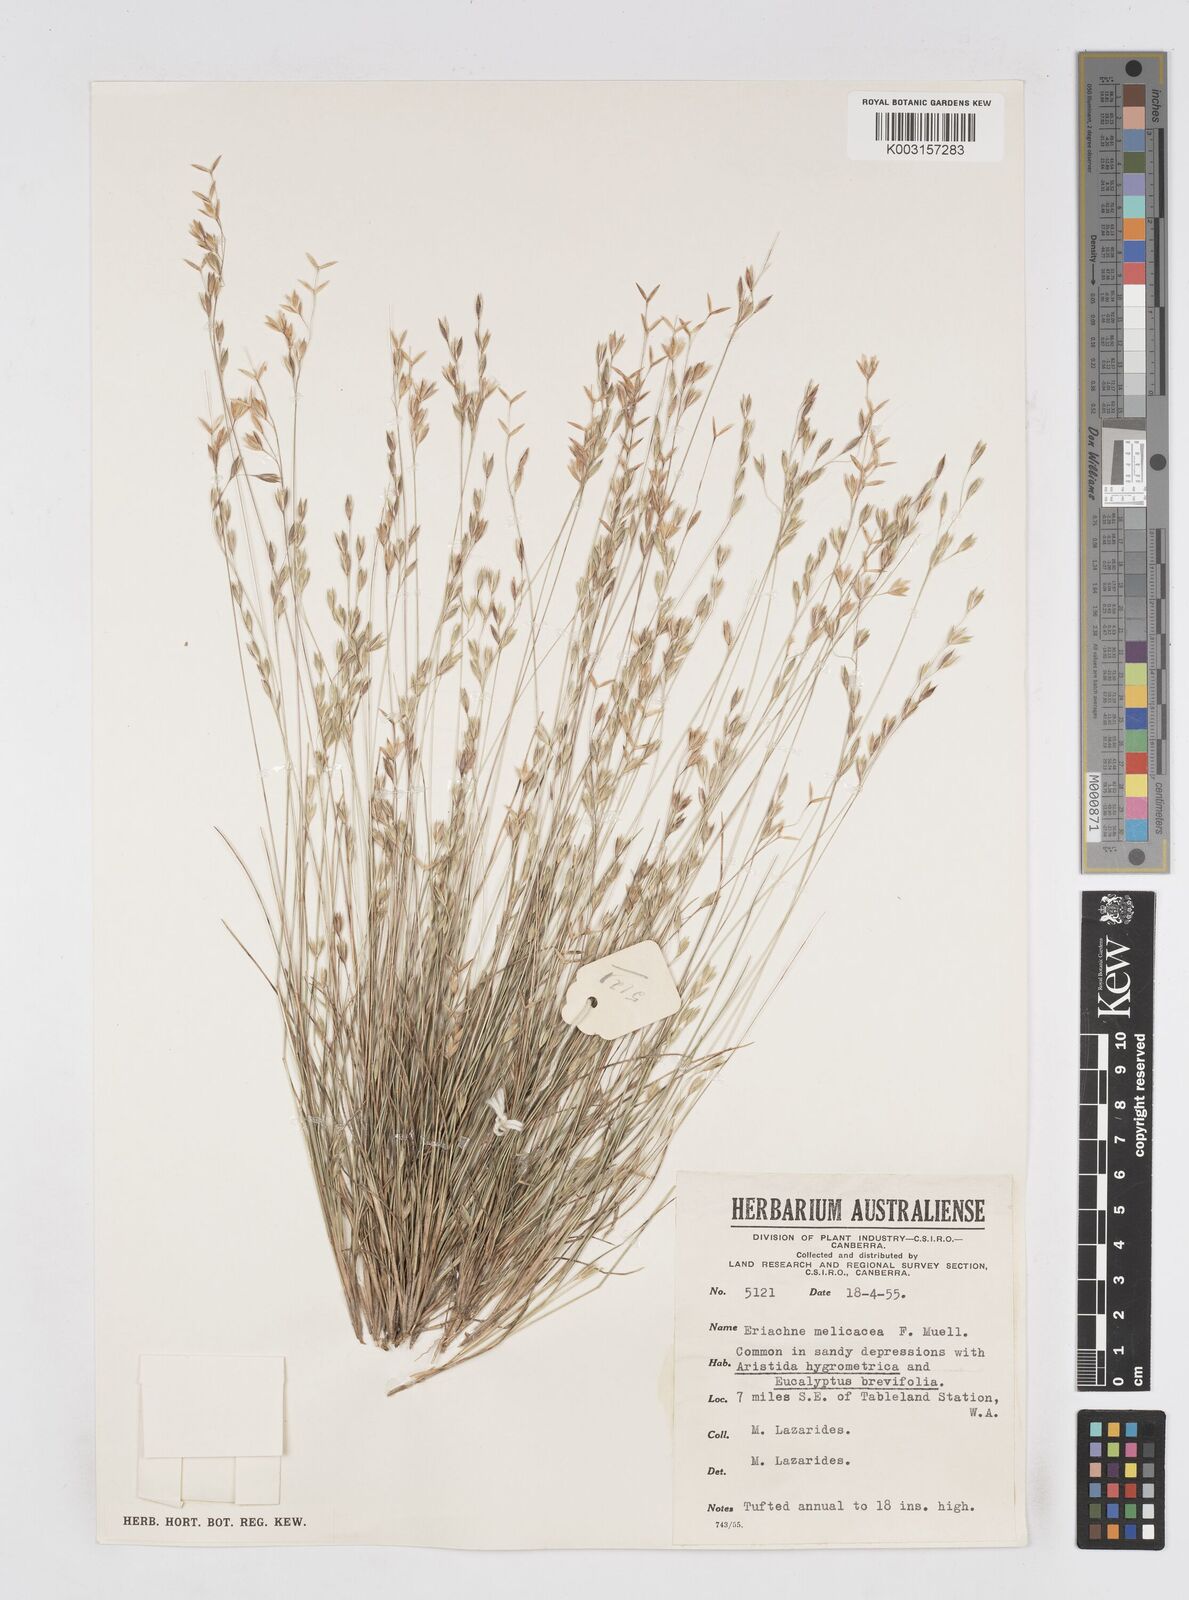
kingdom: Plantae
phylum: Tracheophyta
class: Liliopsida
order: Poales
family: Poaceae
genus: Eriachne
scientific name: Eriachne melicacea
